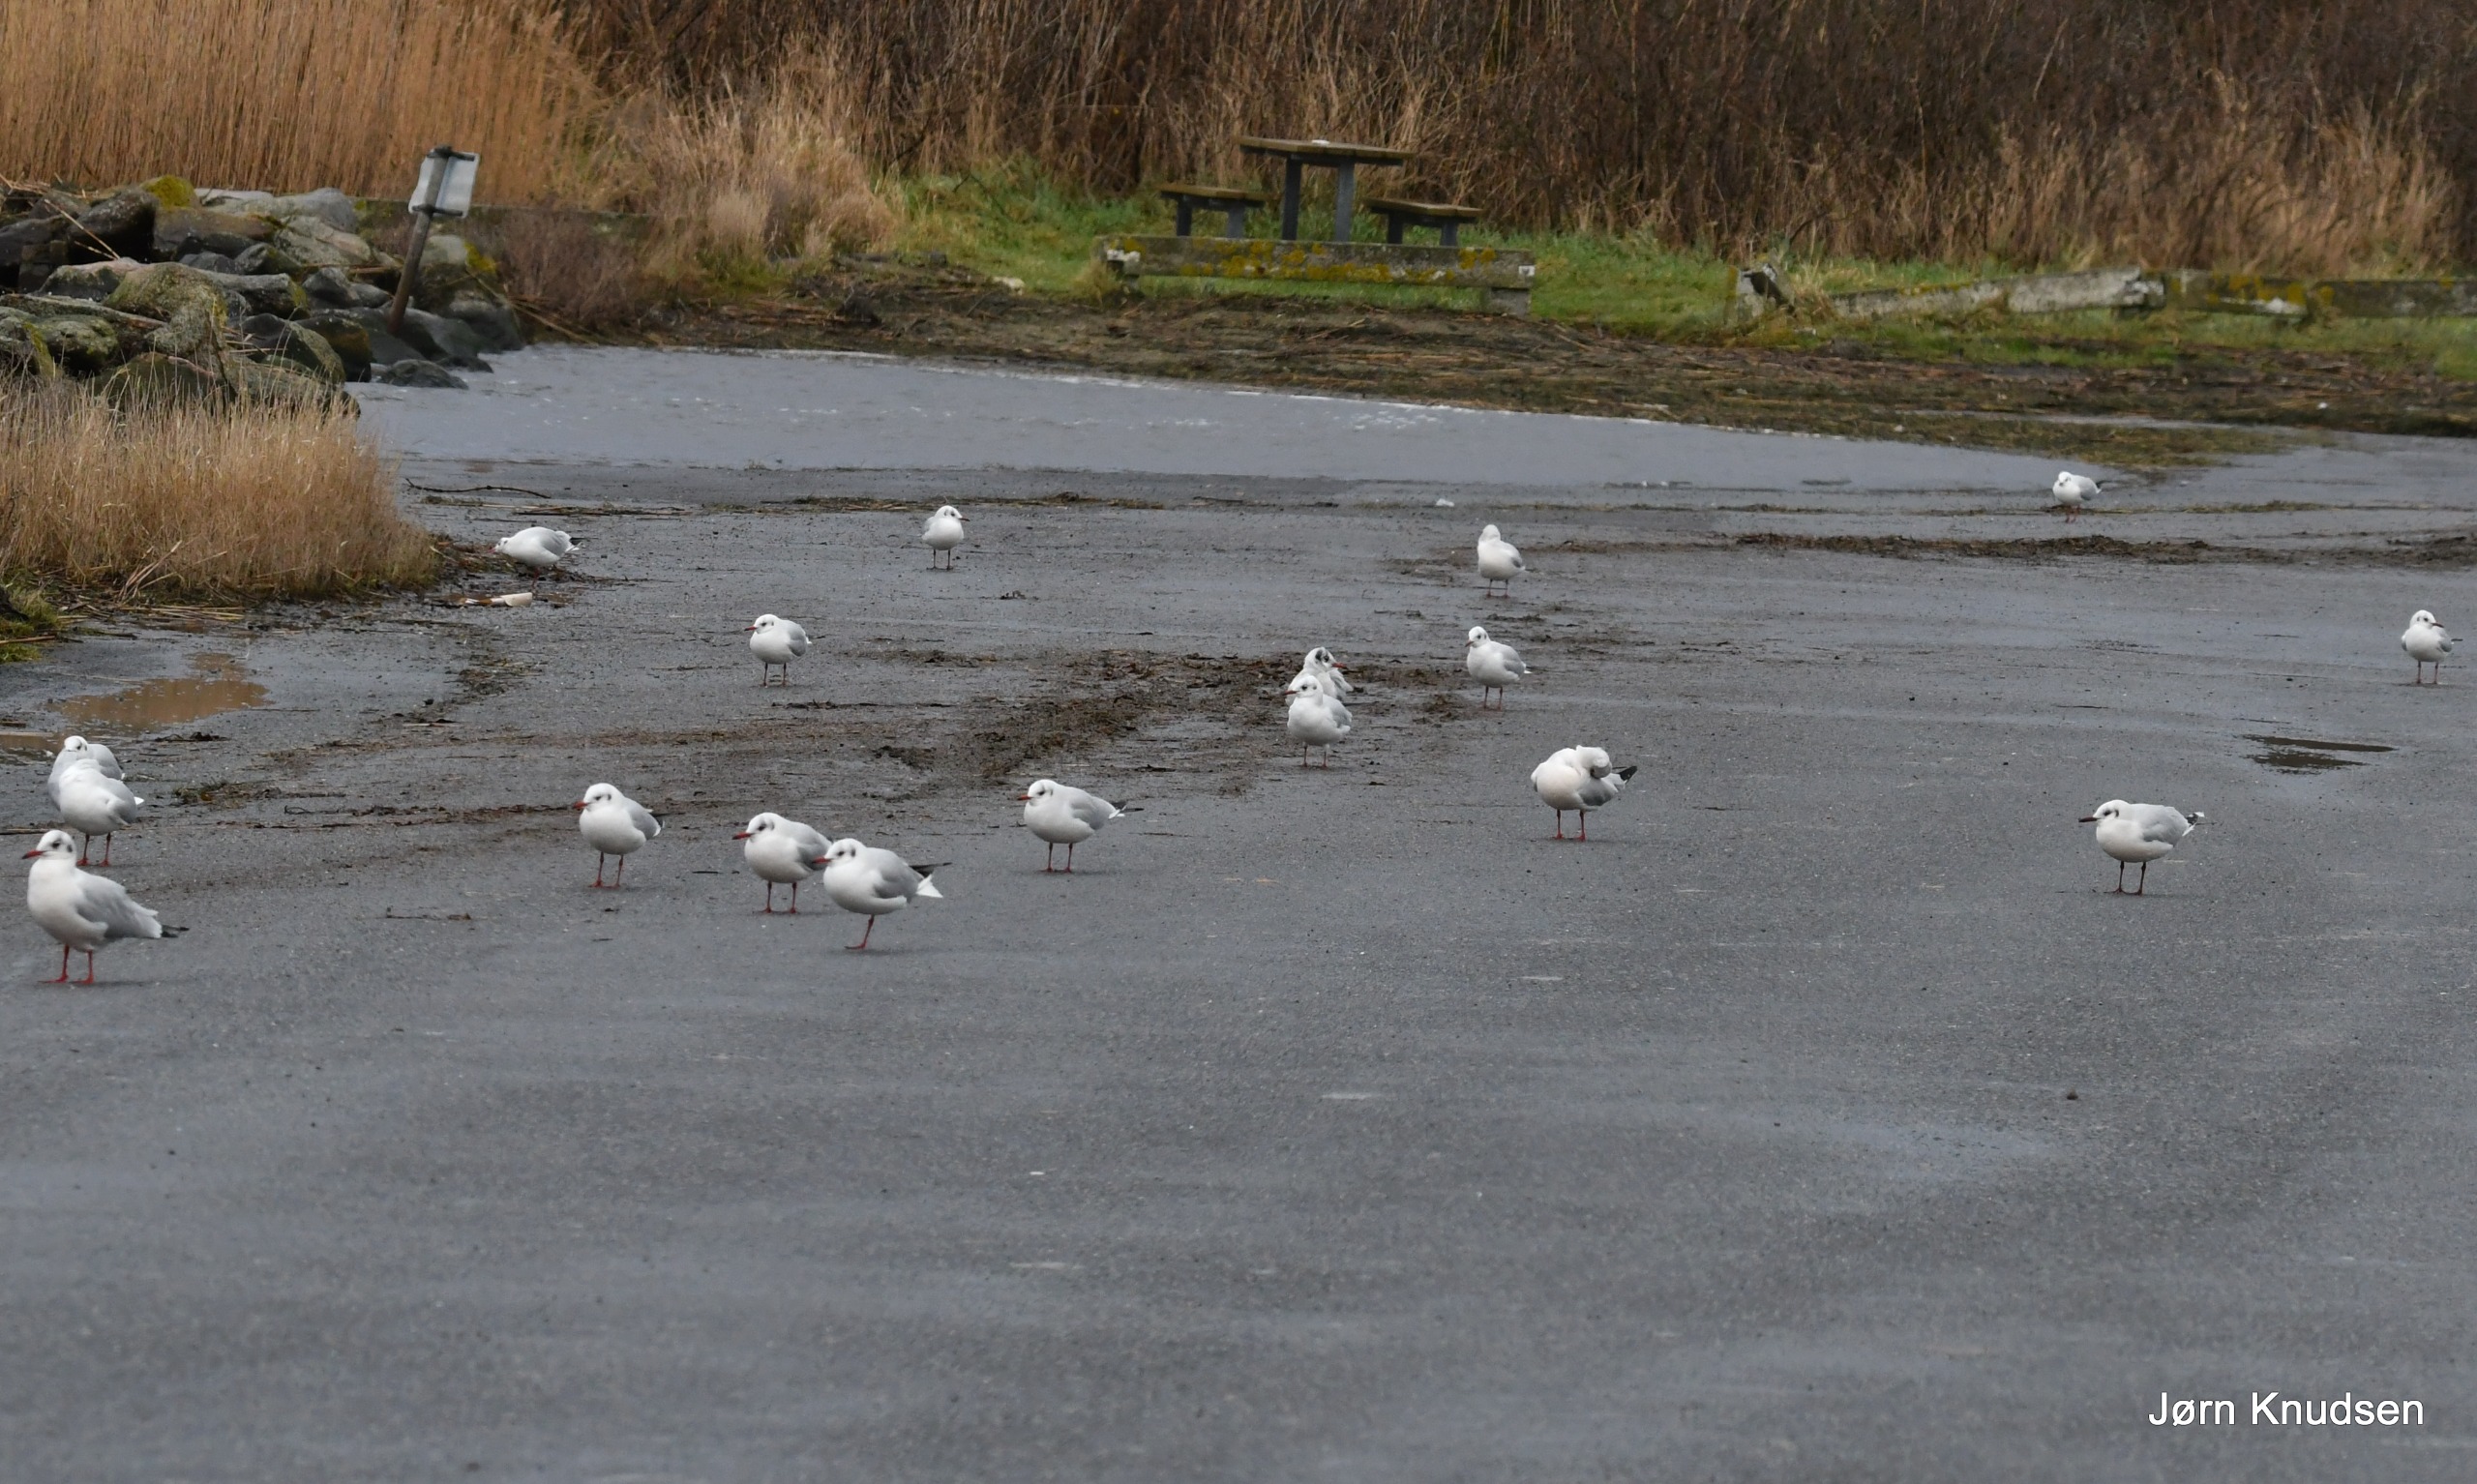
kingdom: Animalia
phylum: Chordata
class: Aves
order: Charadriiformes
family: Laridae
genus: Chroicocephalus
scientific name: Chroicocephalus ridibundus
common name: Hættemåge
